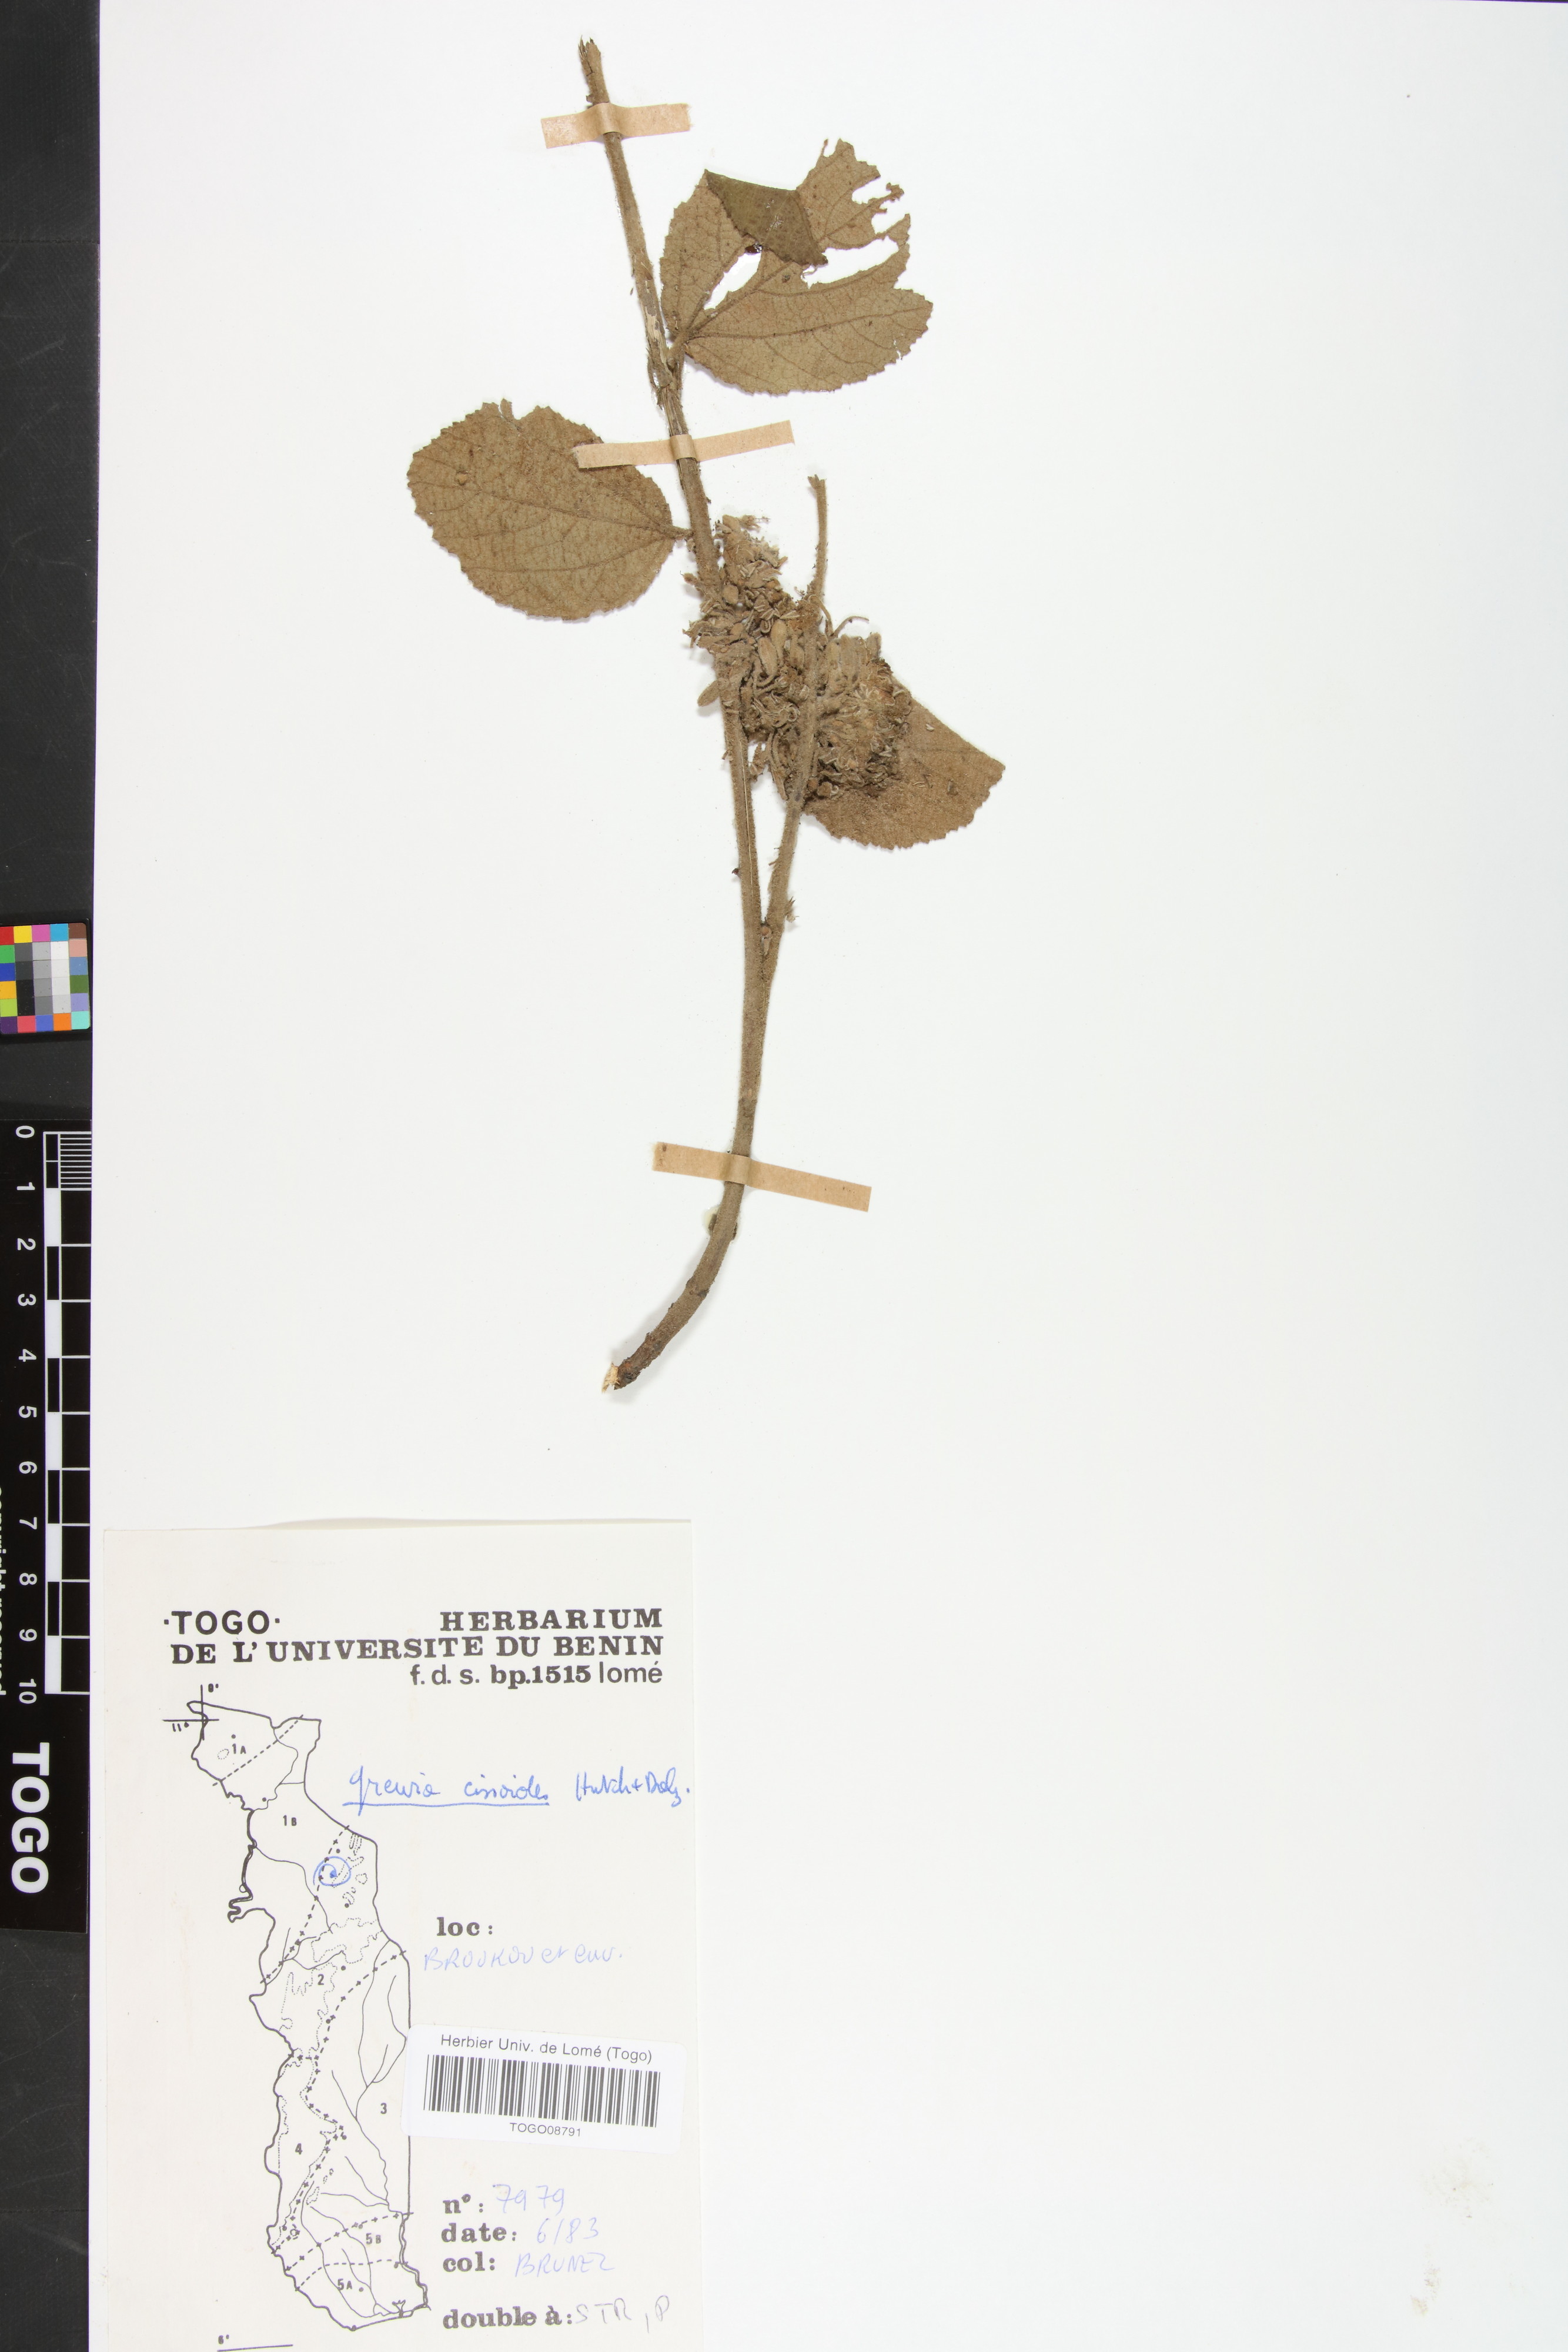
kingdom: Plantae
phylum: Tracheophyta
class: Magnoliopsida
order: Malvales
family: Malvaceae
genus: Grewia
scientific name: Grewia cissoides
